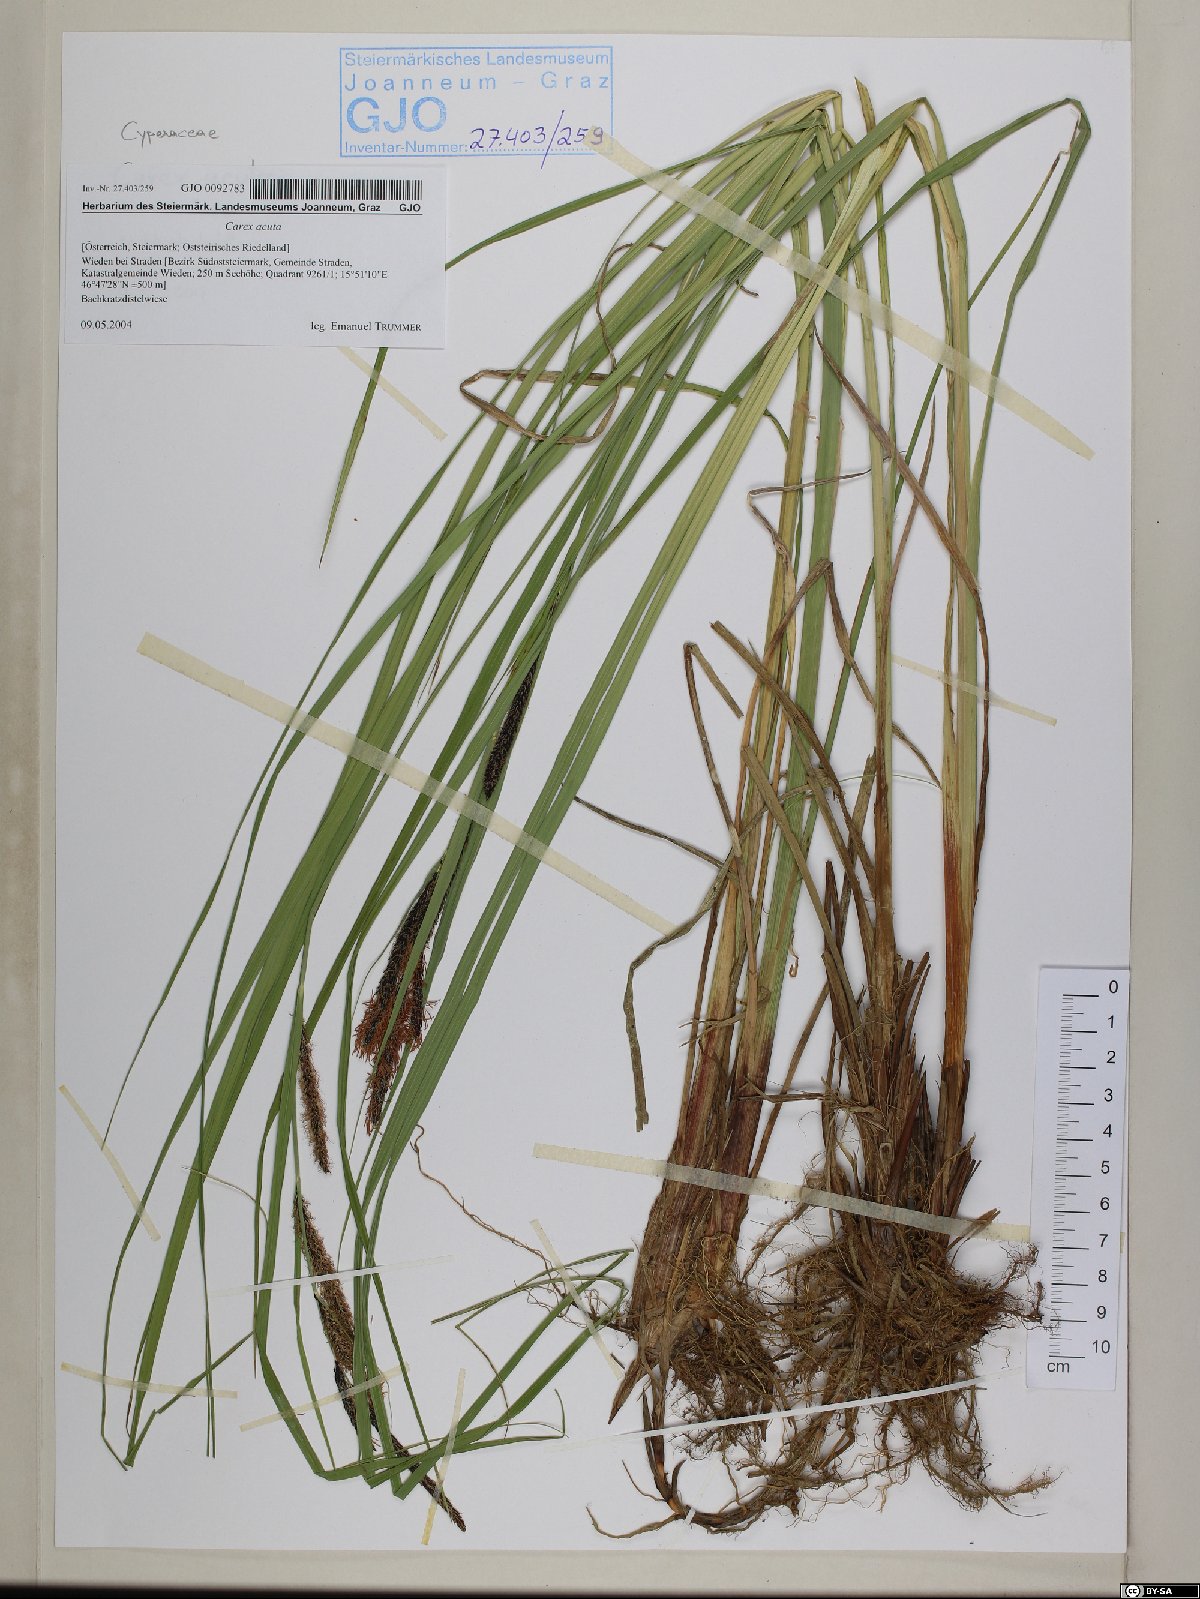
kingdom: Plantae
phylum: Tracheophyta
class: Liliopsida
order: Poales
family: Cyperaceae
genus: Carex
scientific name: Carex acuta
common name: Slender tufted-sedge
